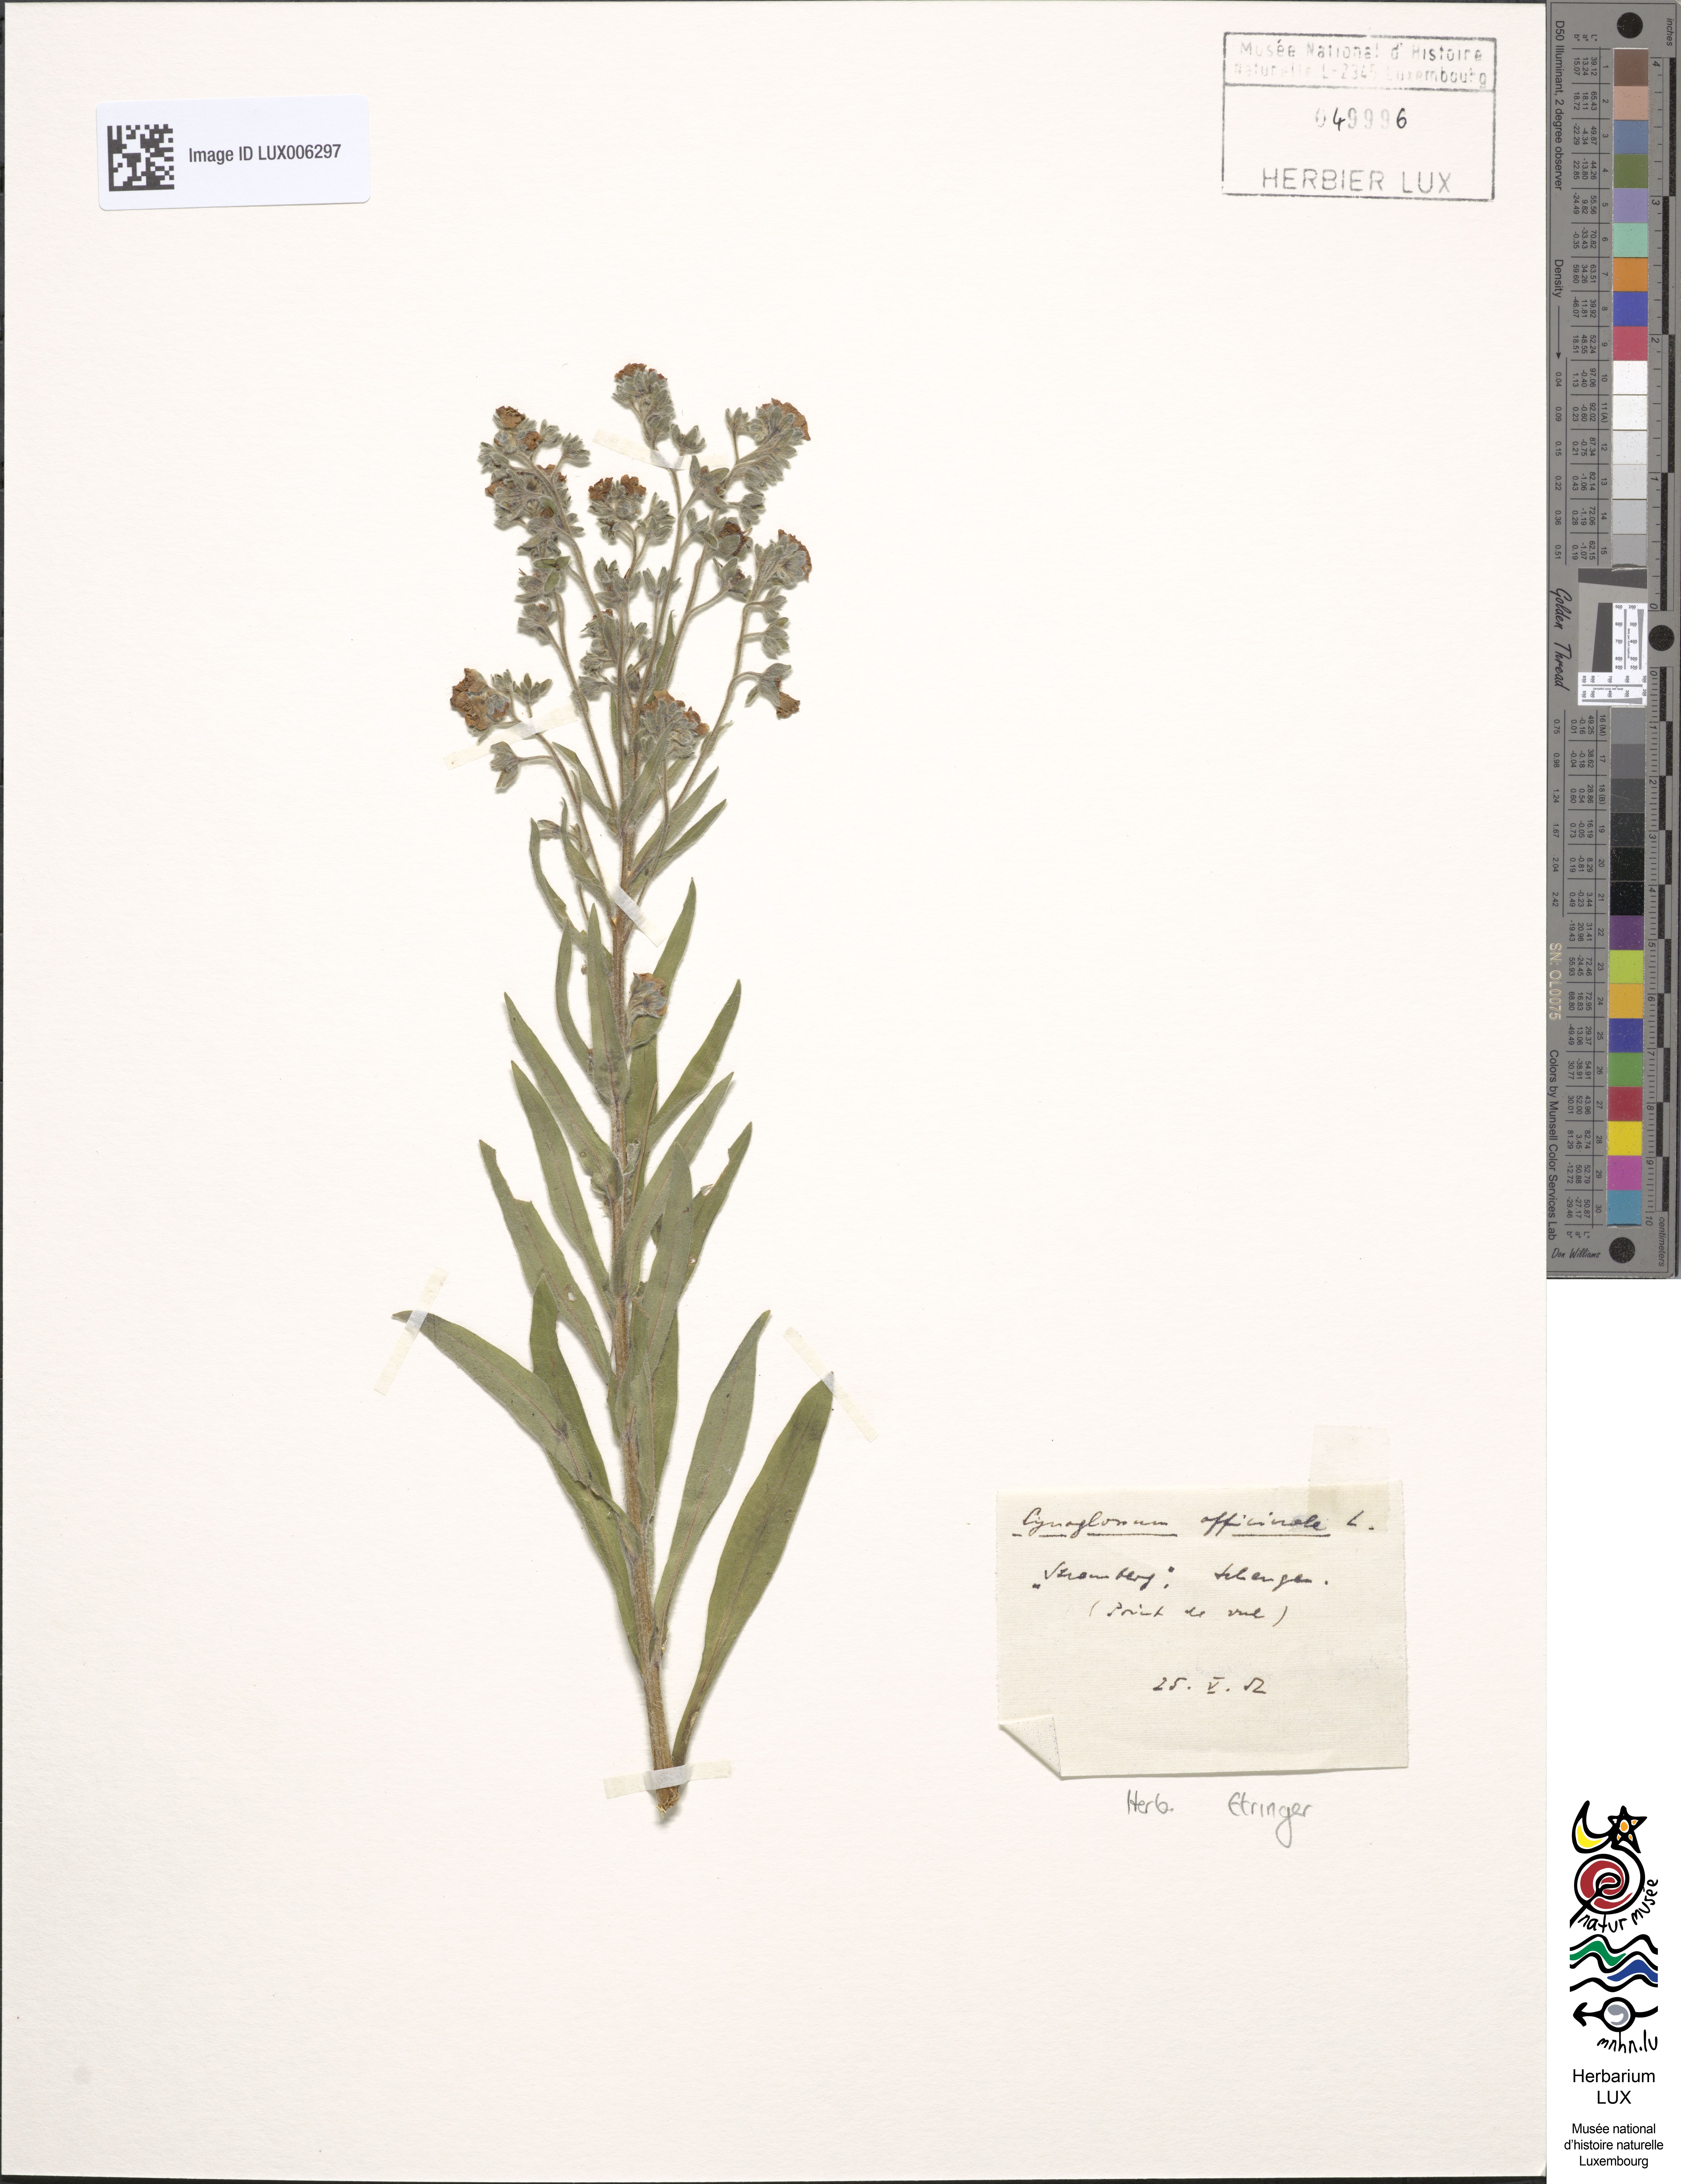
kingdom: Plantae
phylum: Tracheophyta
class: Magnoliopsida
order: Boraginales
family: Boraginaceae
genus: Cynoglossum
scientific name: Cynoglossum officinale
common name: Hound's-tongue
